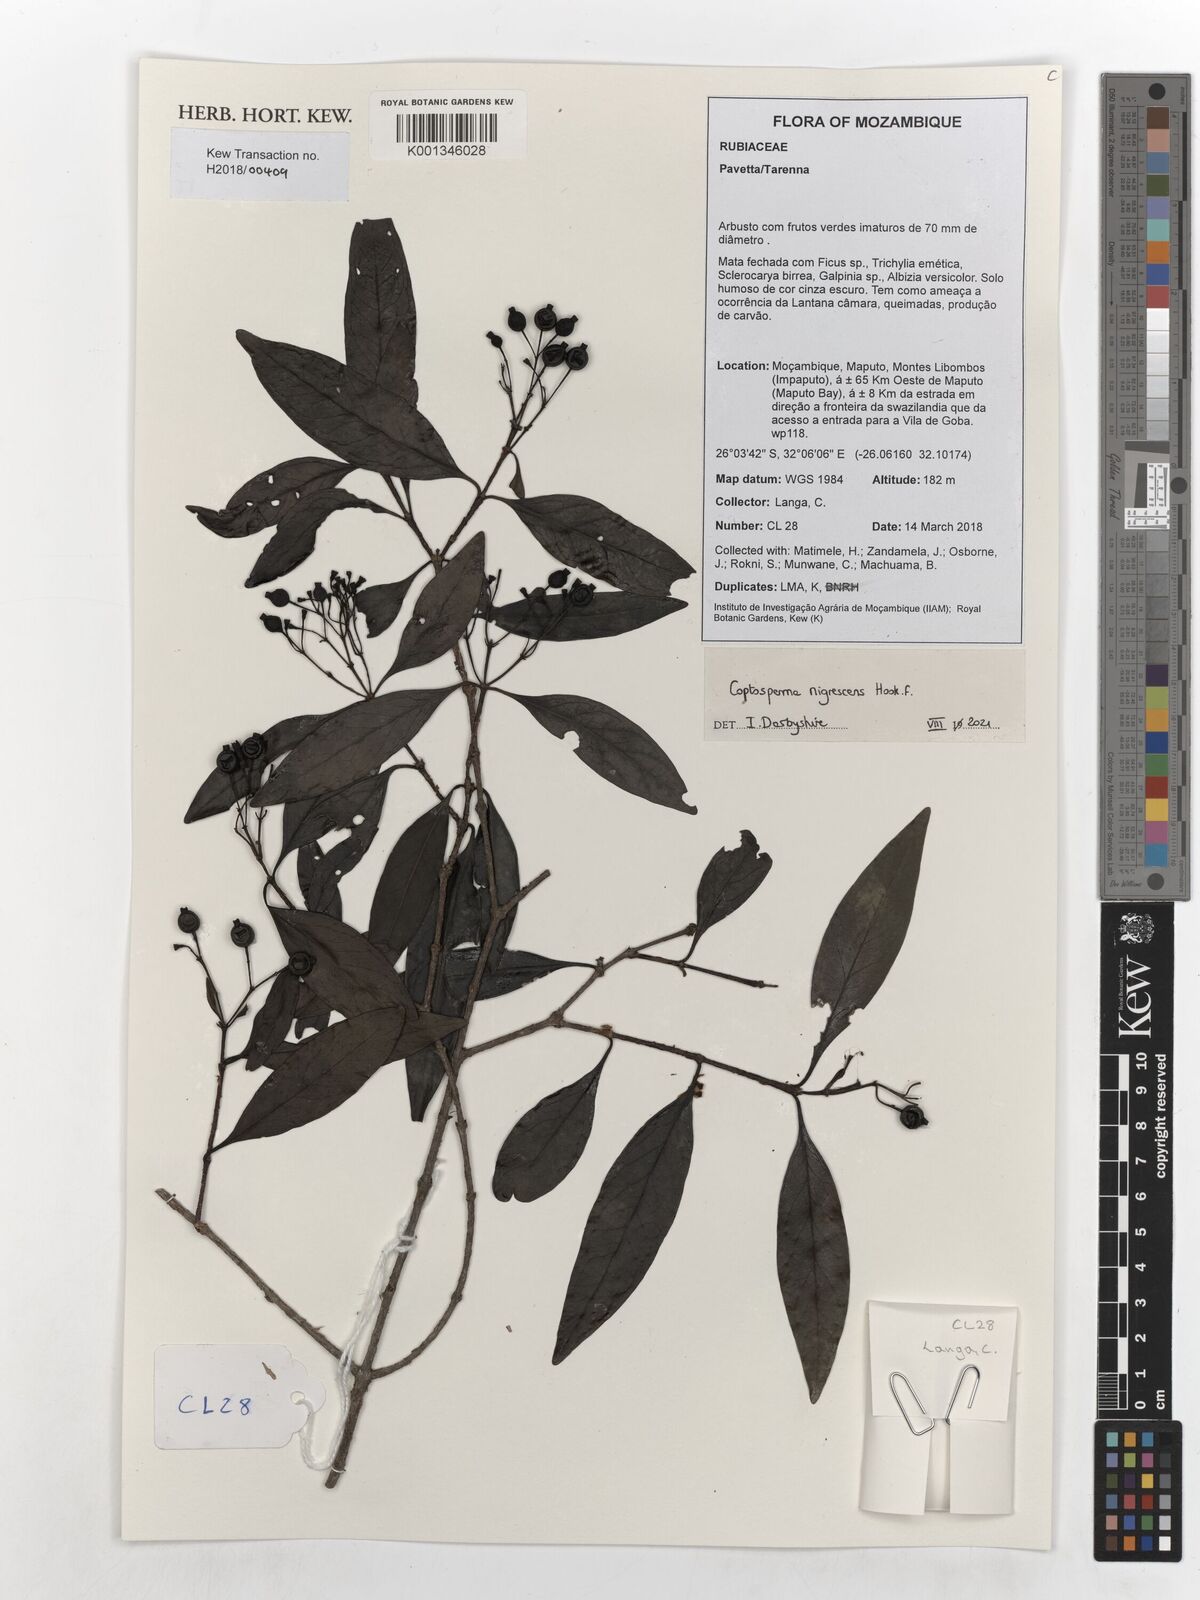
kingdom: Plantae
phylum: Tracheophyta
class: Magnoliopsida
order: Gentianales
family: Rubiaceae
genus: Coptosperma
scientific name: Coptosperma nigrescens
